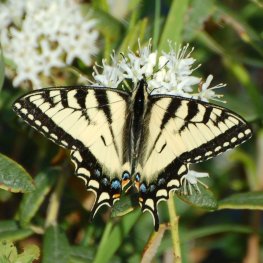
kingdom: Animalia
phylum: Arthropoda
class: Insecta
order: Lepidoptera
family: Papilionidae
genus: Pterourus
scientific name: Pterourus canadensis
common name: Canadian Tiger Swallowtail
